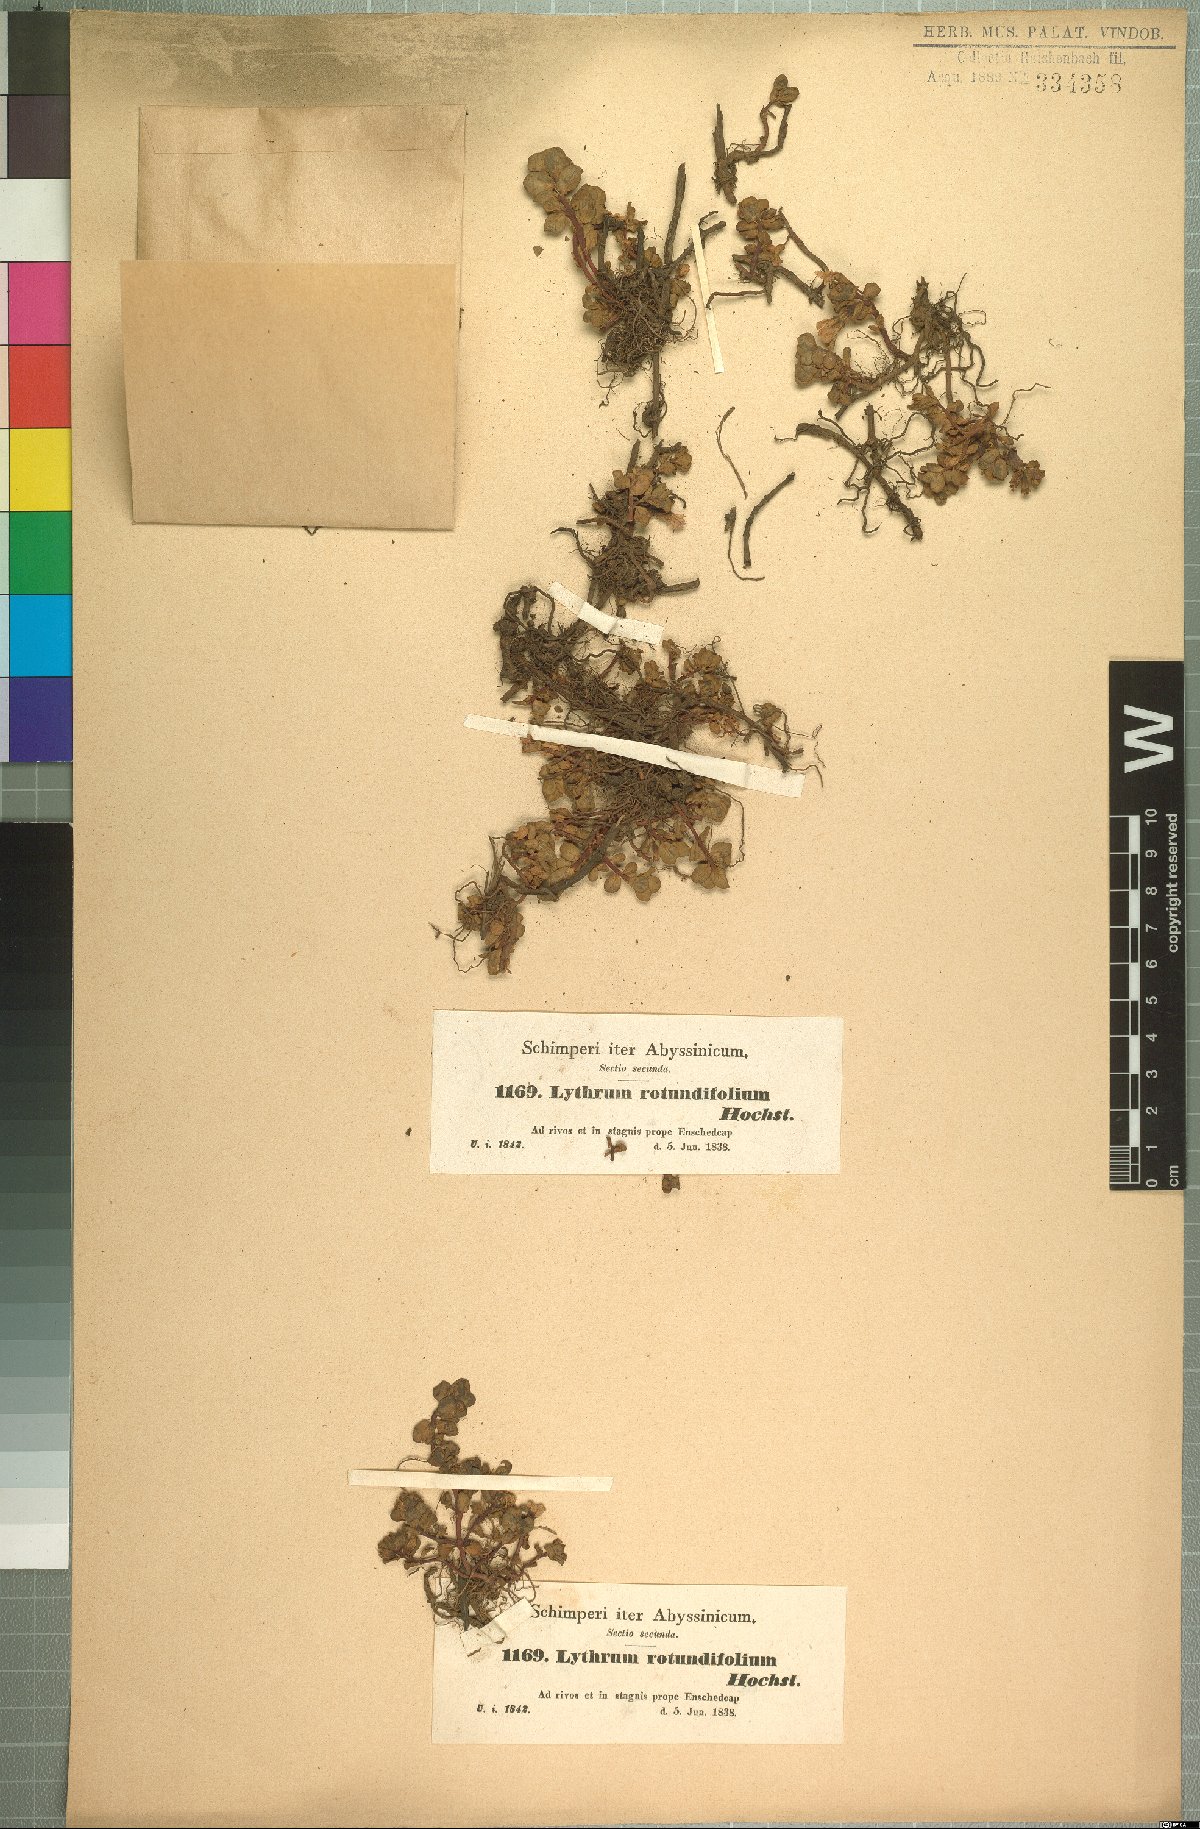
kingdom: Plantae
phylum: Tracheophyta
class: Magnoliopsida
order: Myrtales
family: Lythraceae
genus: Lythrum
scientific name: Lythrum rotundifolium
